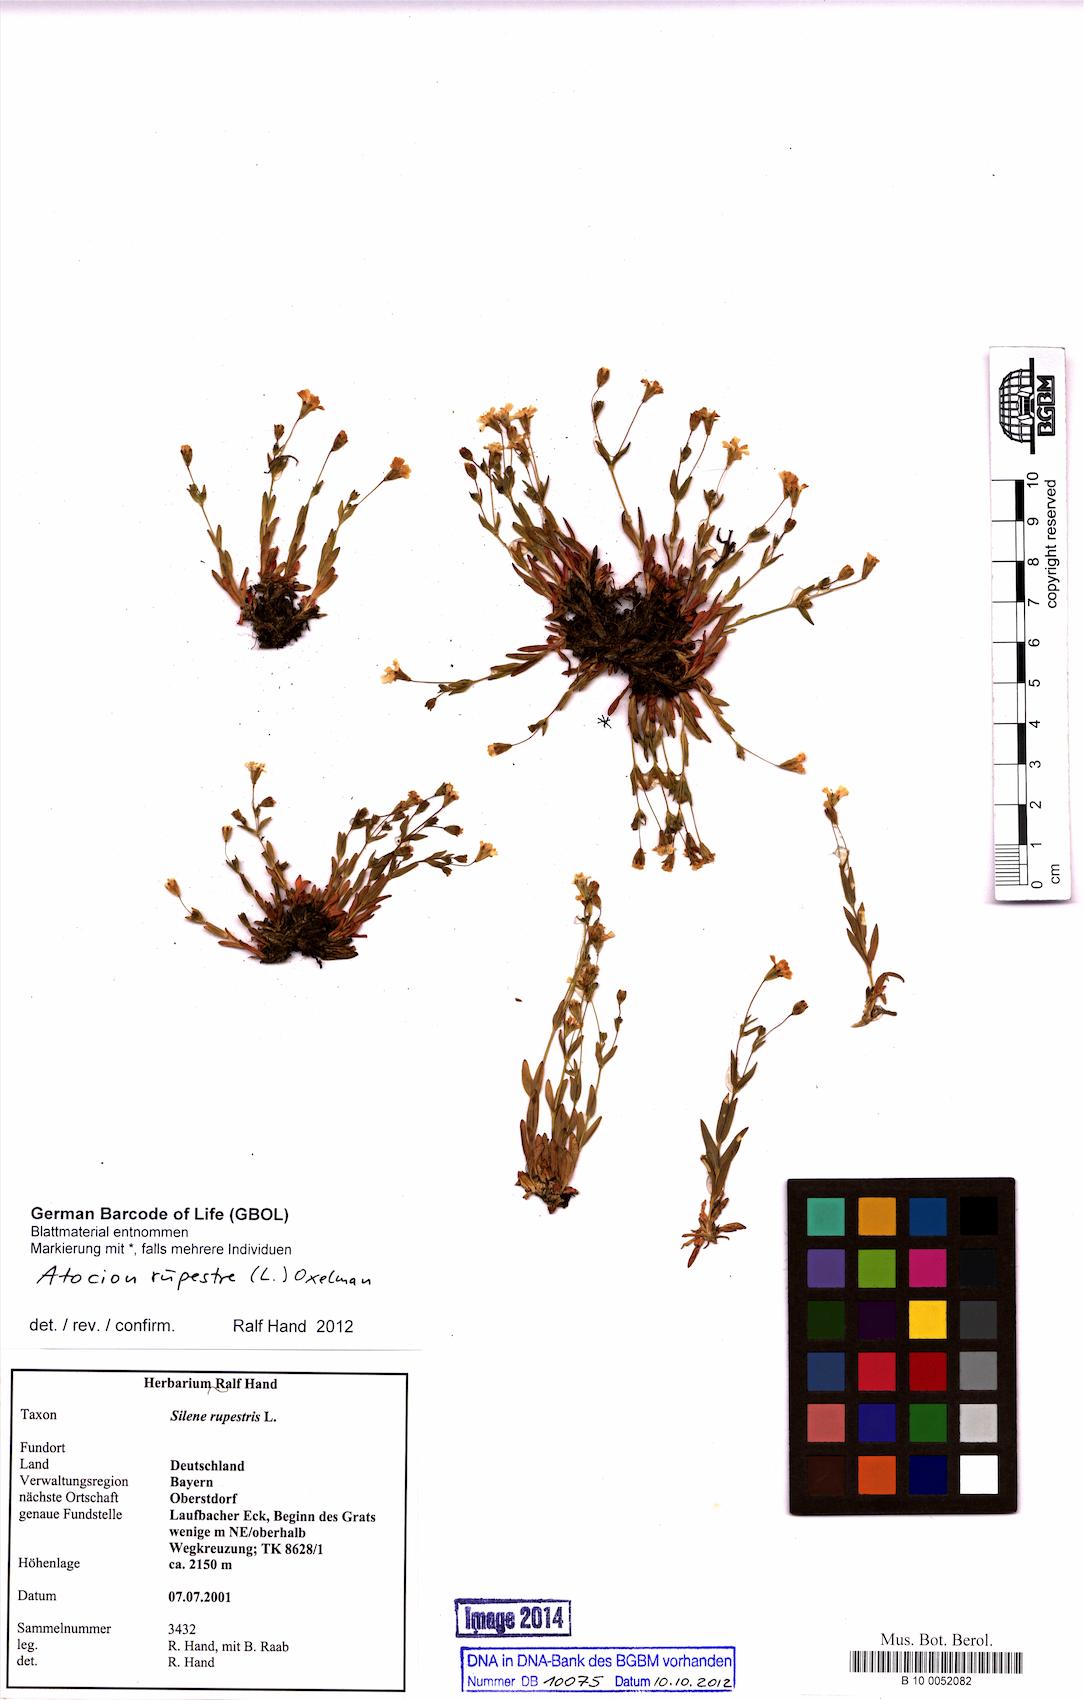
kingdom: Plantae
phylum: Tracheophyta
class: Magnoliopsida
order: Caryophyllales
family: Caryophyllaceae
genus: Atocion
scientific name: Atocion rupestre
